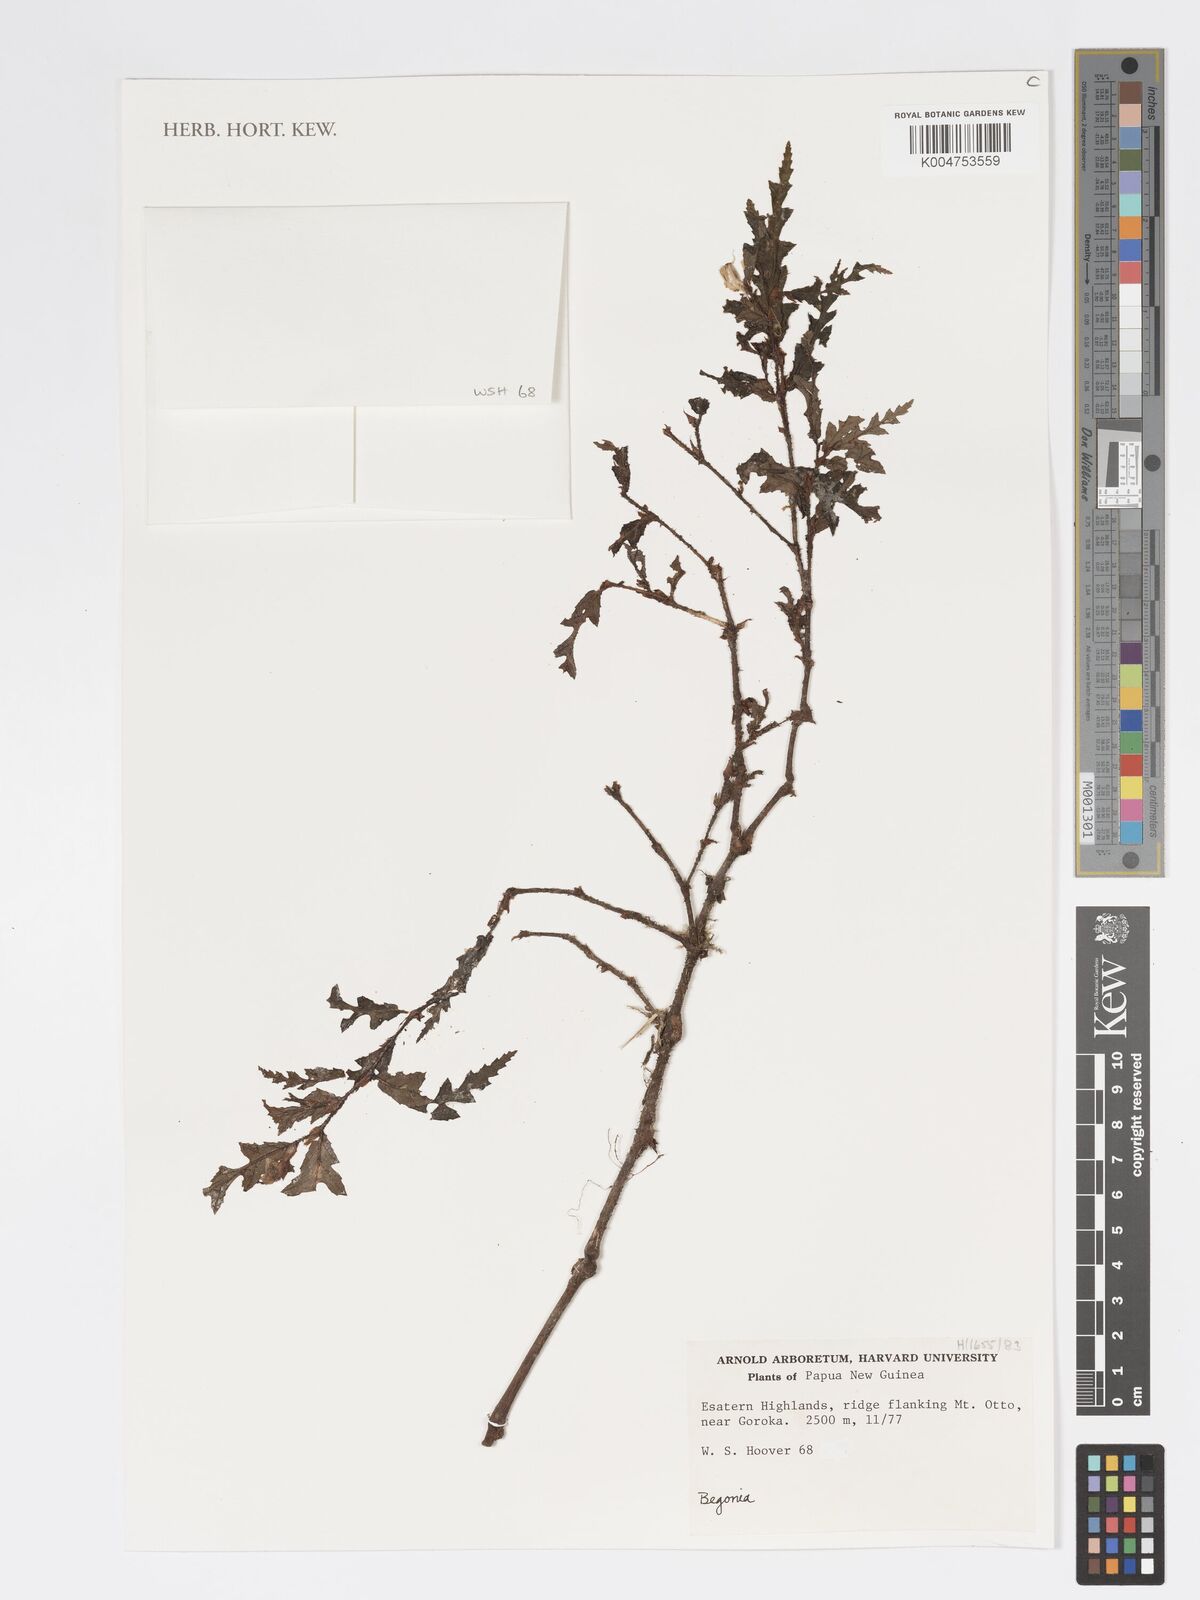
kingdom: Plantae
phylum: Tracheophyta
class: Magnoliopsida
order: Cucurbitales
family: Begoniaceae
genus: Begonia
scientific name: Begonia asaroensis
